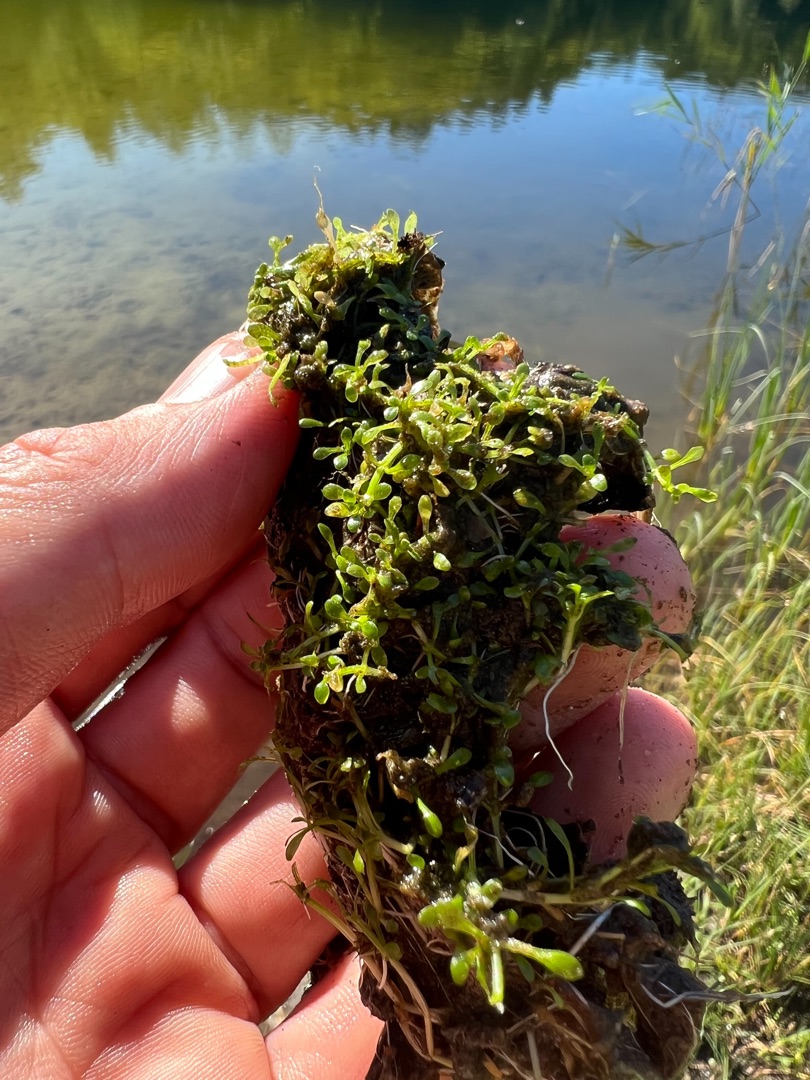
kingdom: Plantae
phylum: Tracheophyta
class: Magnoliopsida
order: Malpighiales
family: Elatinaceae
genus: Elatine
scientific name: Elatine hexandra
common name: Sekshannet bækarve
